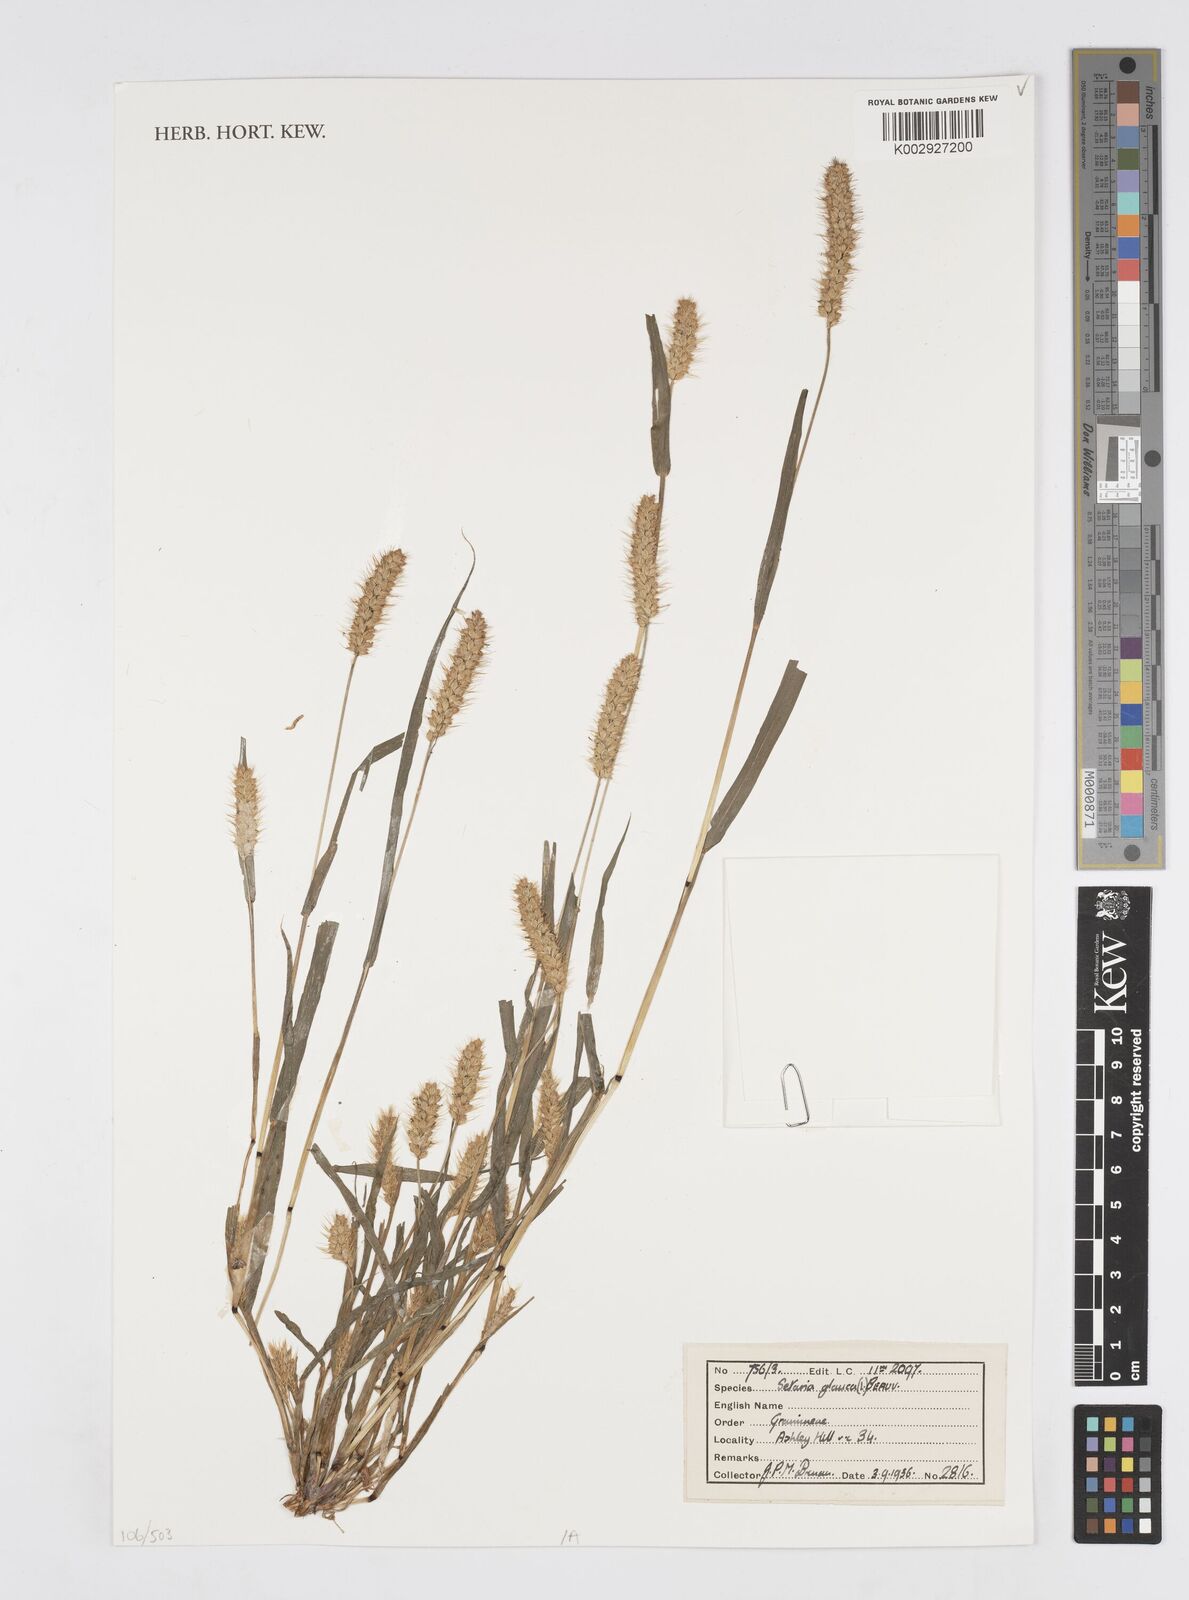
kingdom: Plantae
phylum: Tracheophyta
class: Liliopsida
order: Poales
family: Poaceae
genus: Cenchrus
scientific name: Cenchrus
